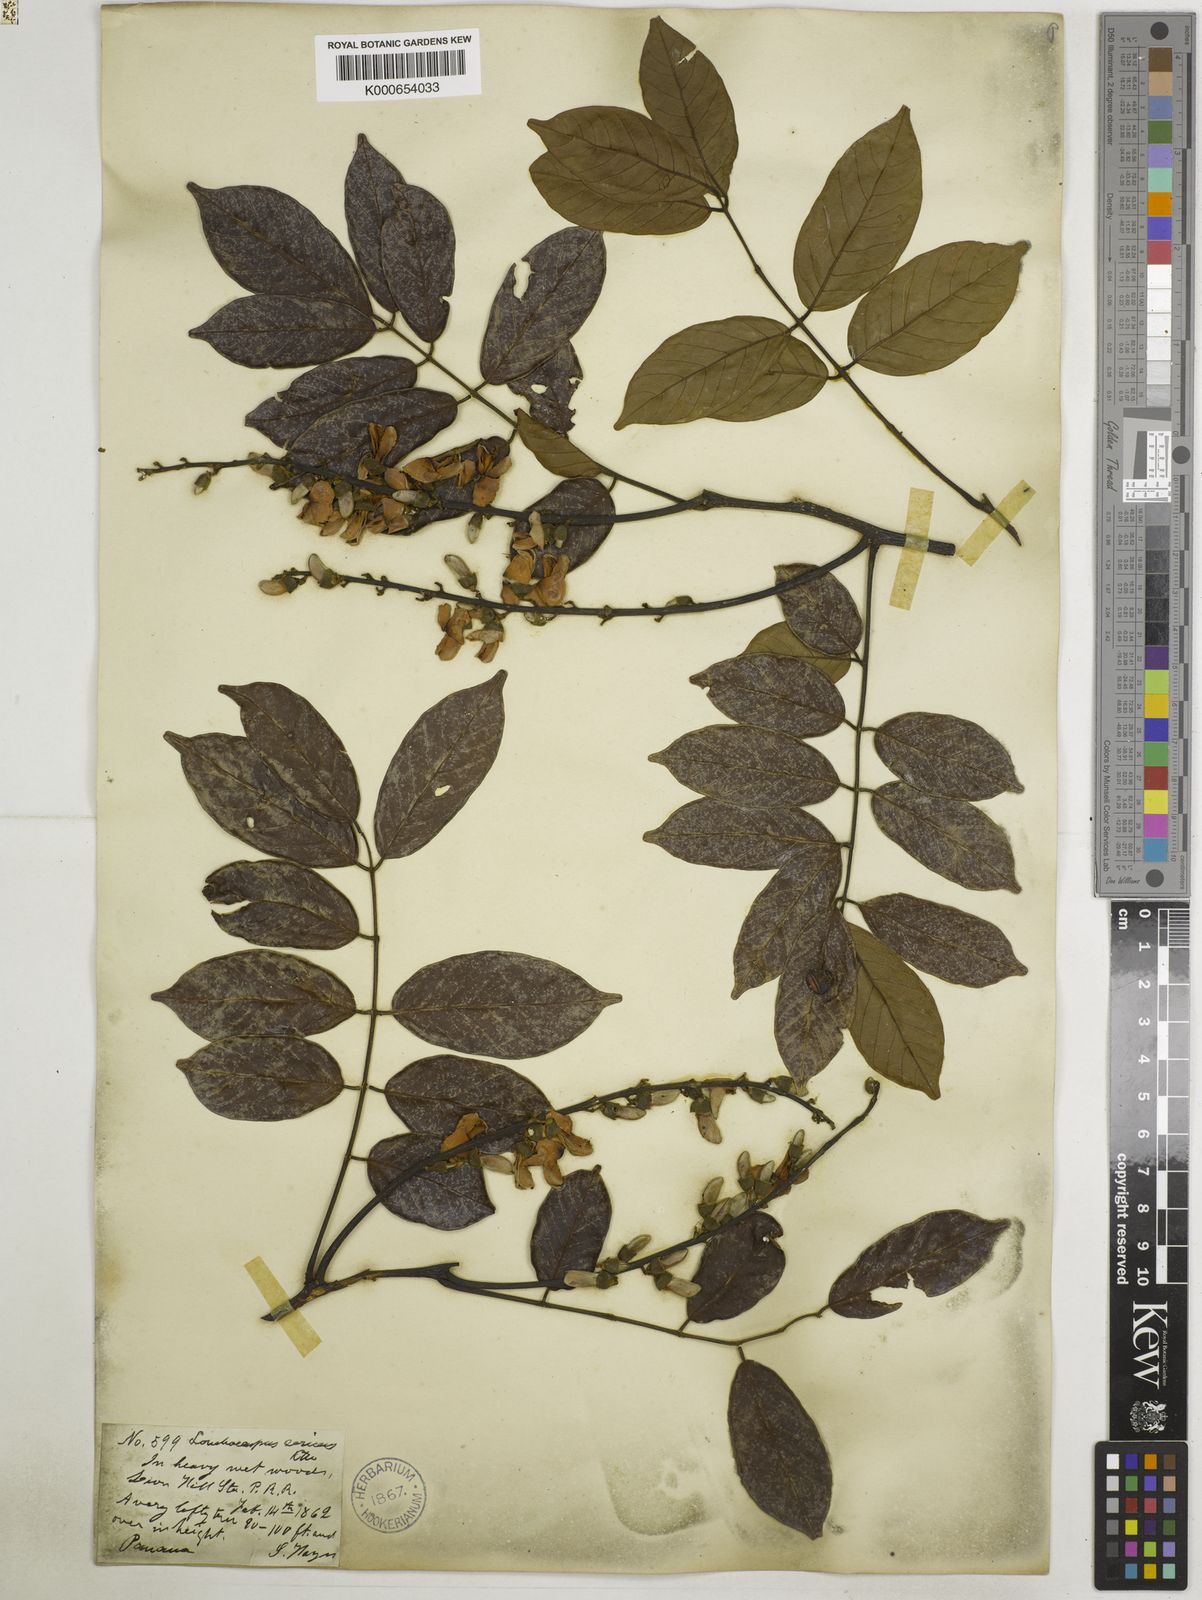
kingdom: Plantae
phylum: Tracheophyta
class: Magnoliopsida
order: Fabales
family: Fabaceae
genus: Lonchocarpus
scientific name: Lonchocarpus sericeus
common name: Savonette
